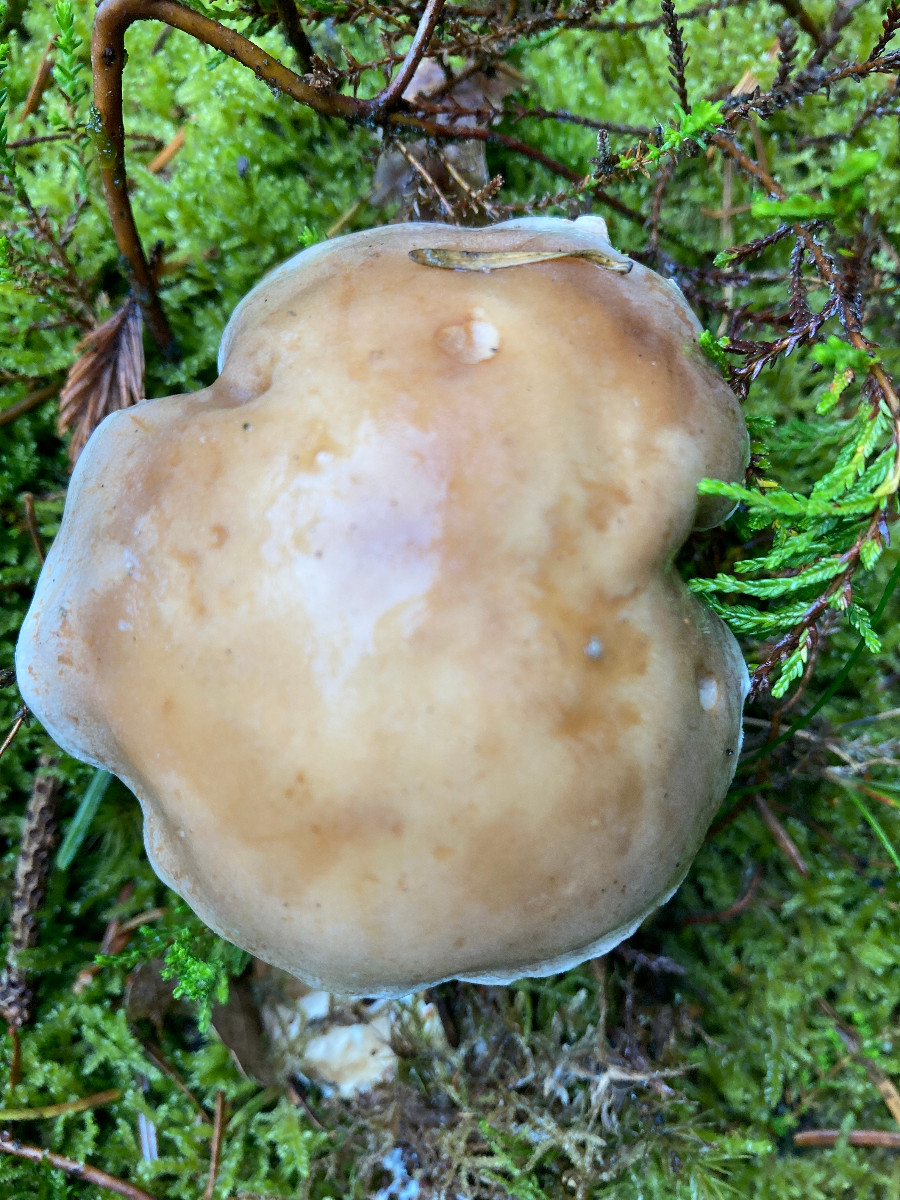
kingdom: Fungi
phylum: Basidiomycota
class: Agaricomycetes
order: Agaricales
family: Hymenogastraceae
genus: Hebeloma
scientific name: Hebeloma
